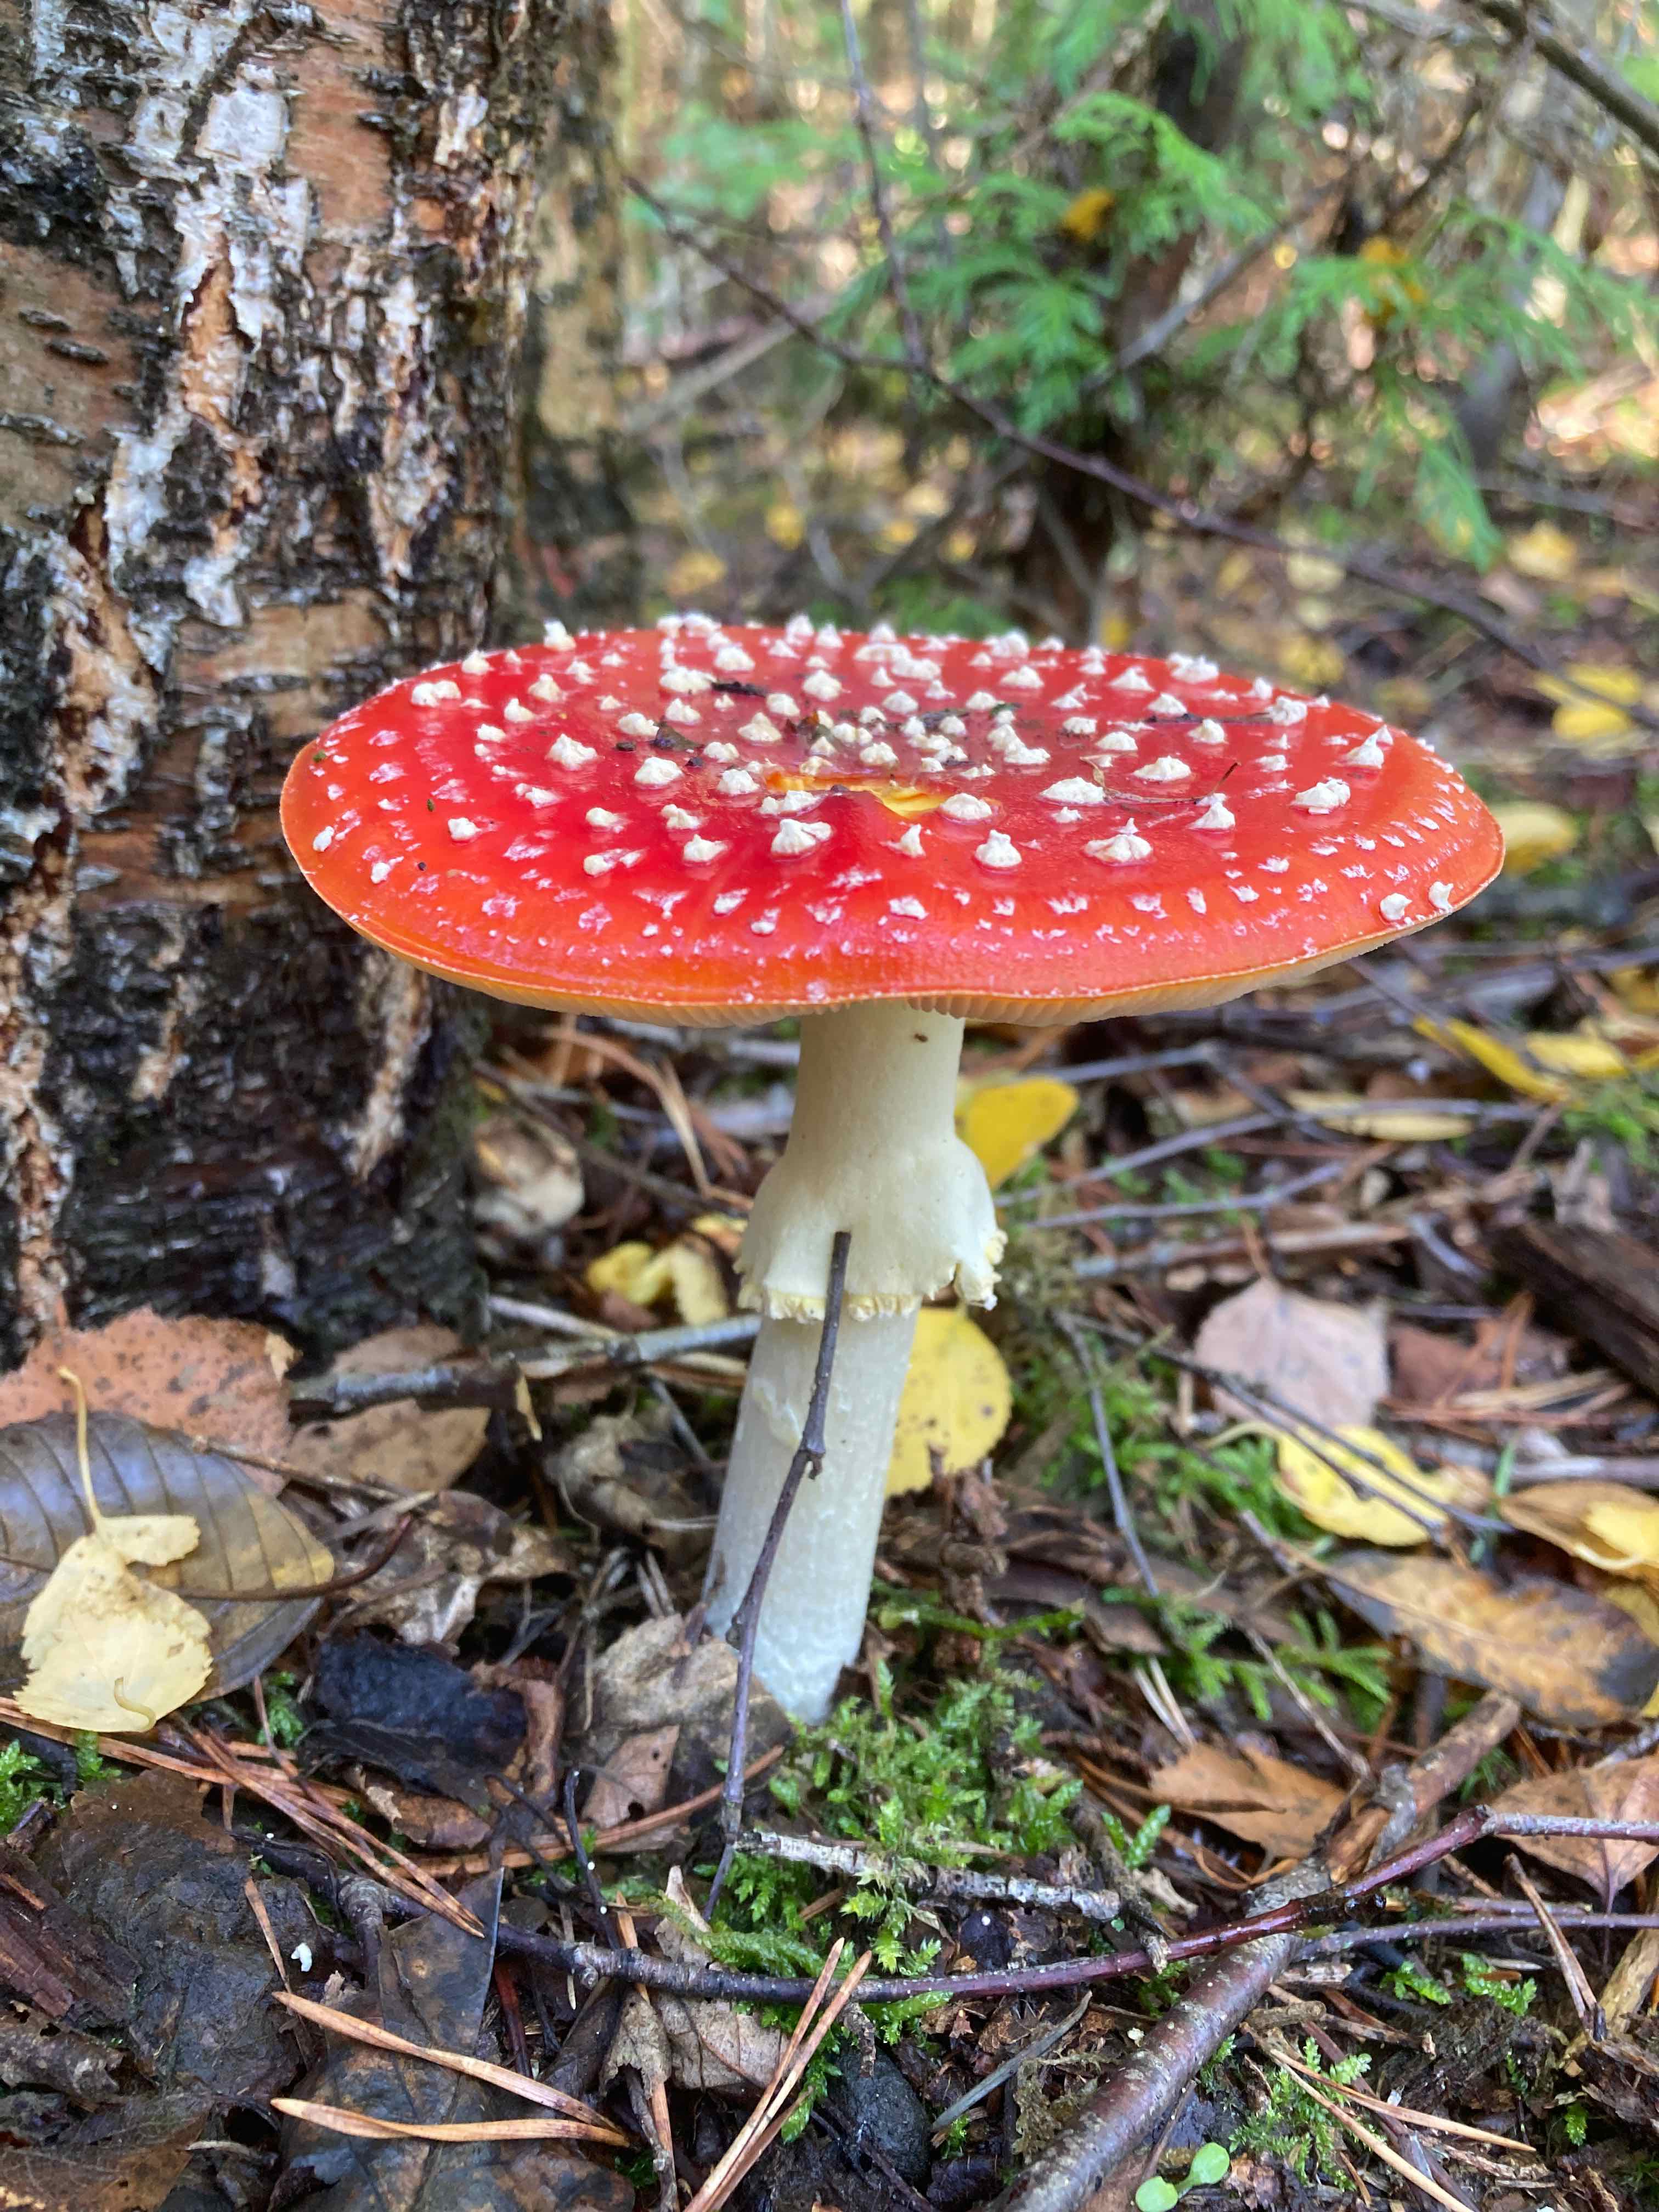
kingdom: Fungi
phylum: Basidiomycota
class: Agaricomycetes
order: Agaricales
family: Amanitaceae
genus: Amanita
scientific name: Amanita muscaria
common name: rød fluesvamp
